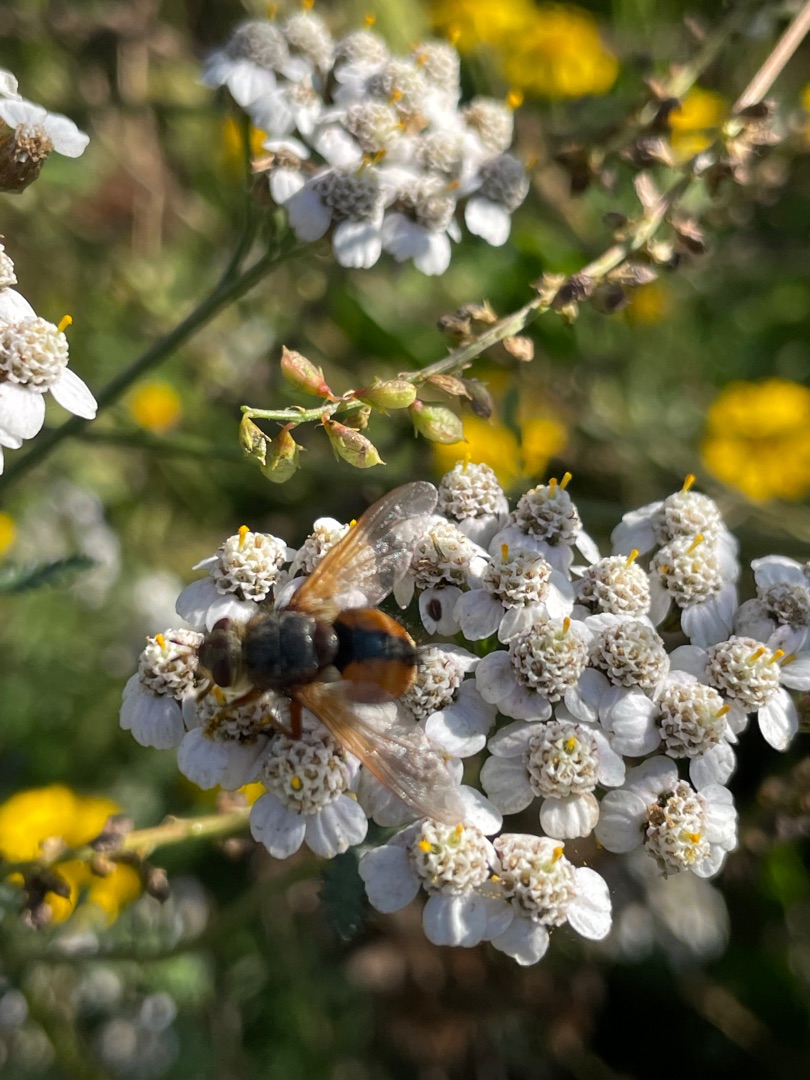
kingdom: Animalia
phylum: Arthropoda
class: Insecta
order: Diptera
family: Tachinidae
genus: Tachina
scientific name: Tachina fera
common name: Mellemfluen oskar
